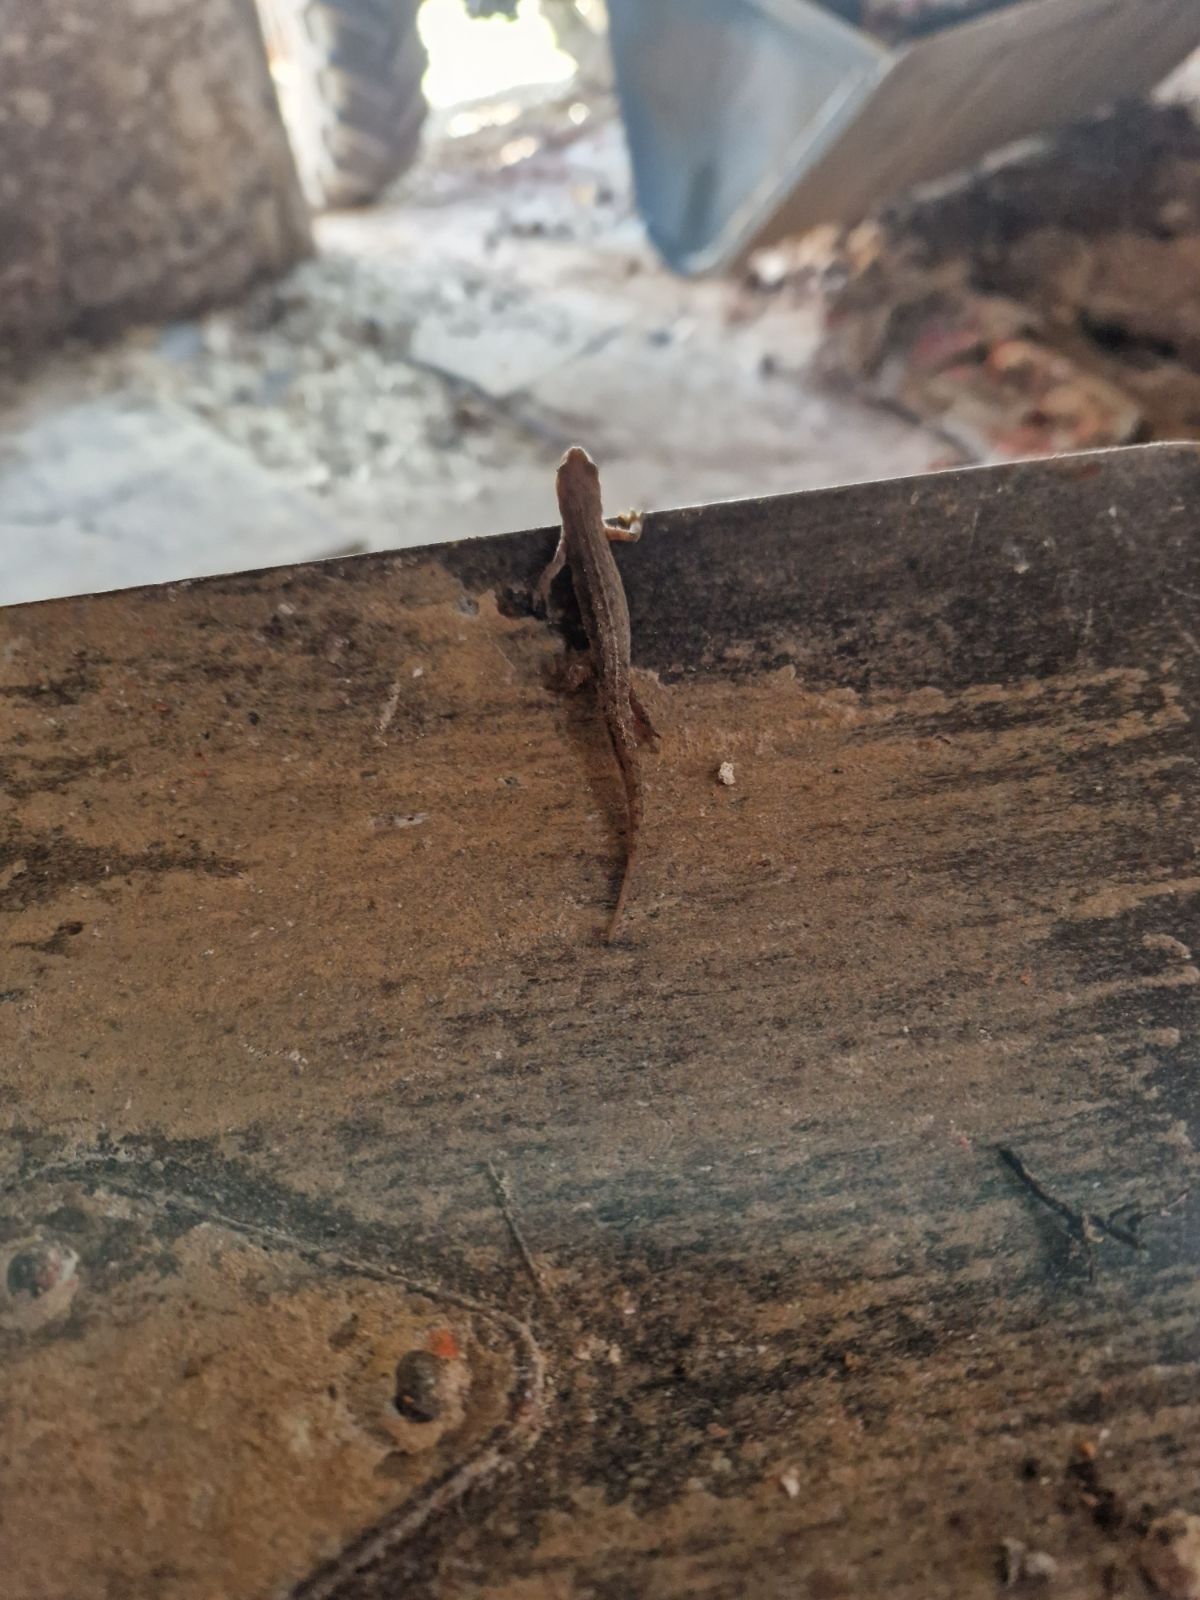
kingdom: Animalia
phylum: Chordata
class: Amphibia
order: Caudata
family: Salamandridae
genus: Lissotriton
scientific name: Lissotriton vulgaris
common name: Lille vandsalamander
